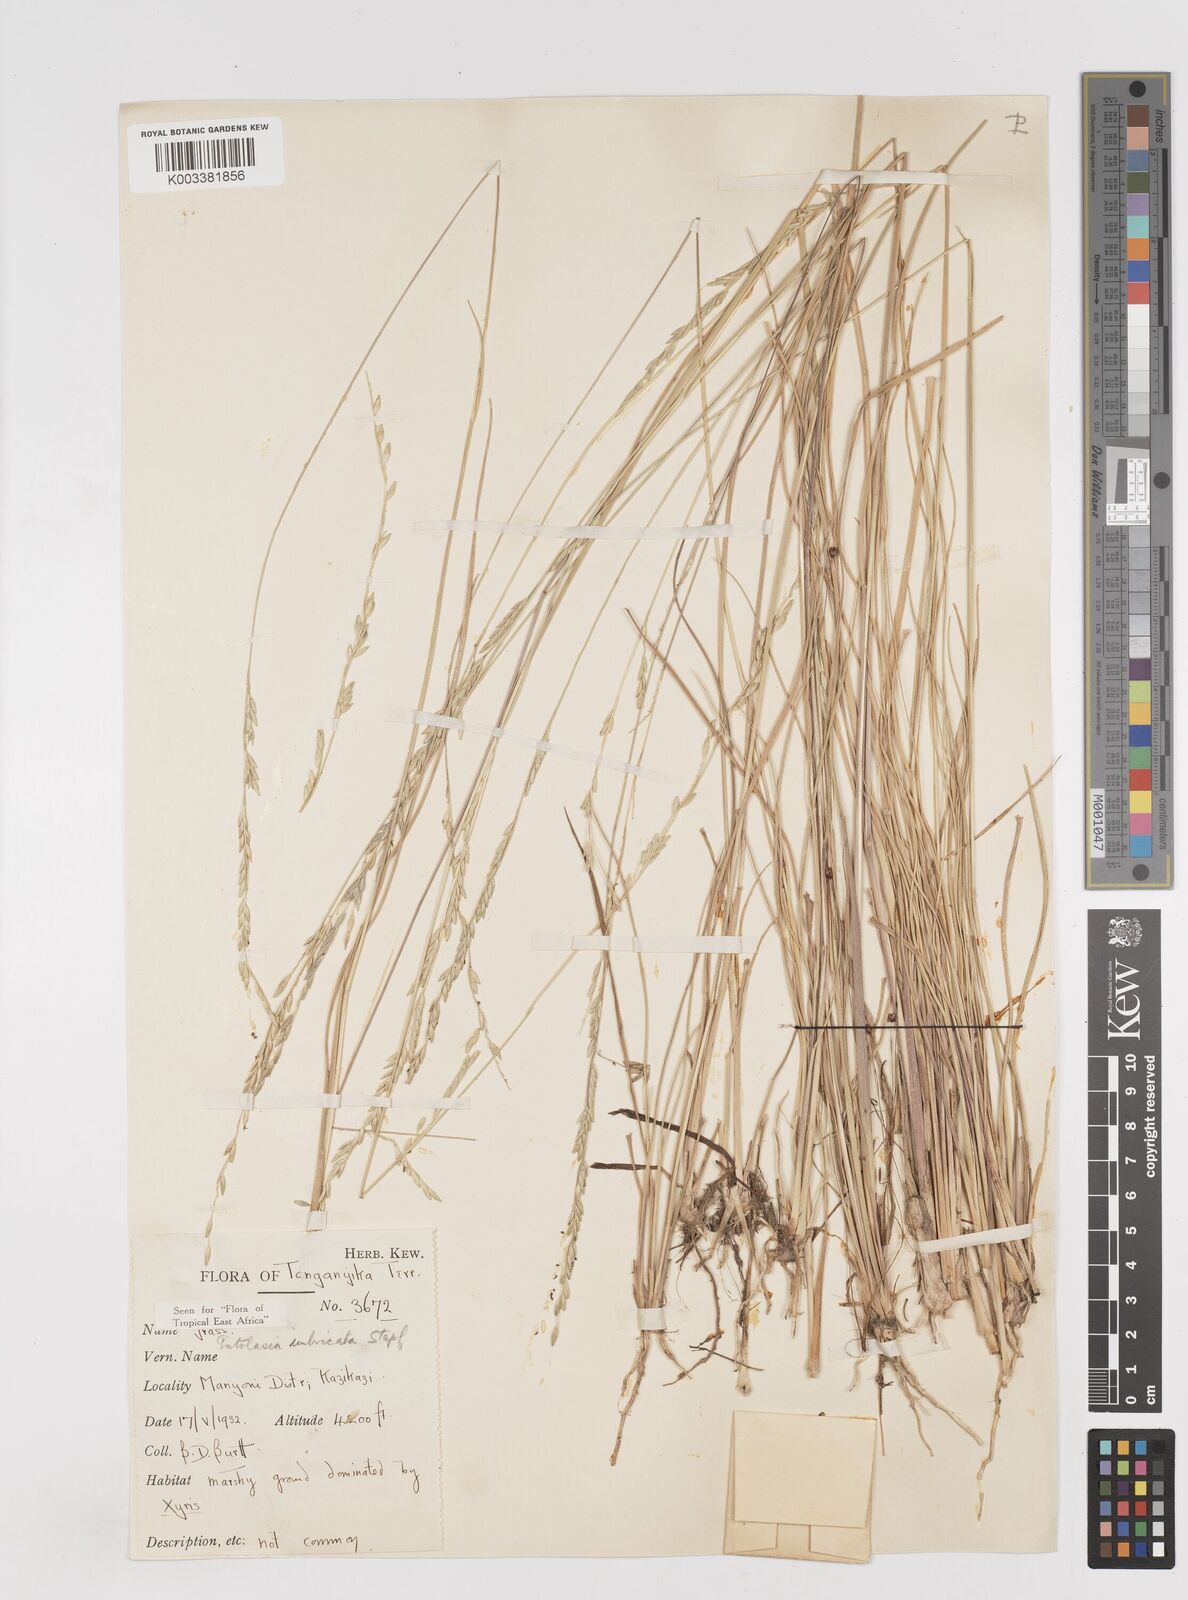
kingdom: Plantae
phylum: Tracheophyta
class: Liliopsida
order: Poales
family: Poaceae
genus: Entolasia
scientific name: Entolasia imbricata
